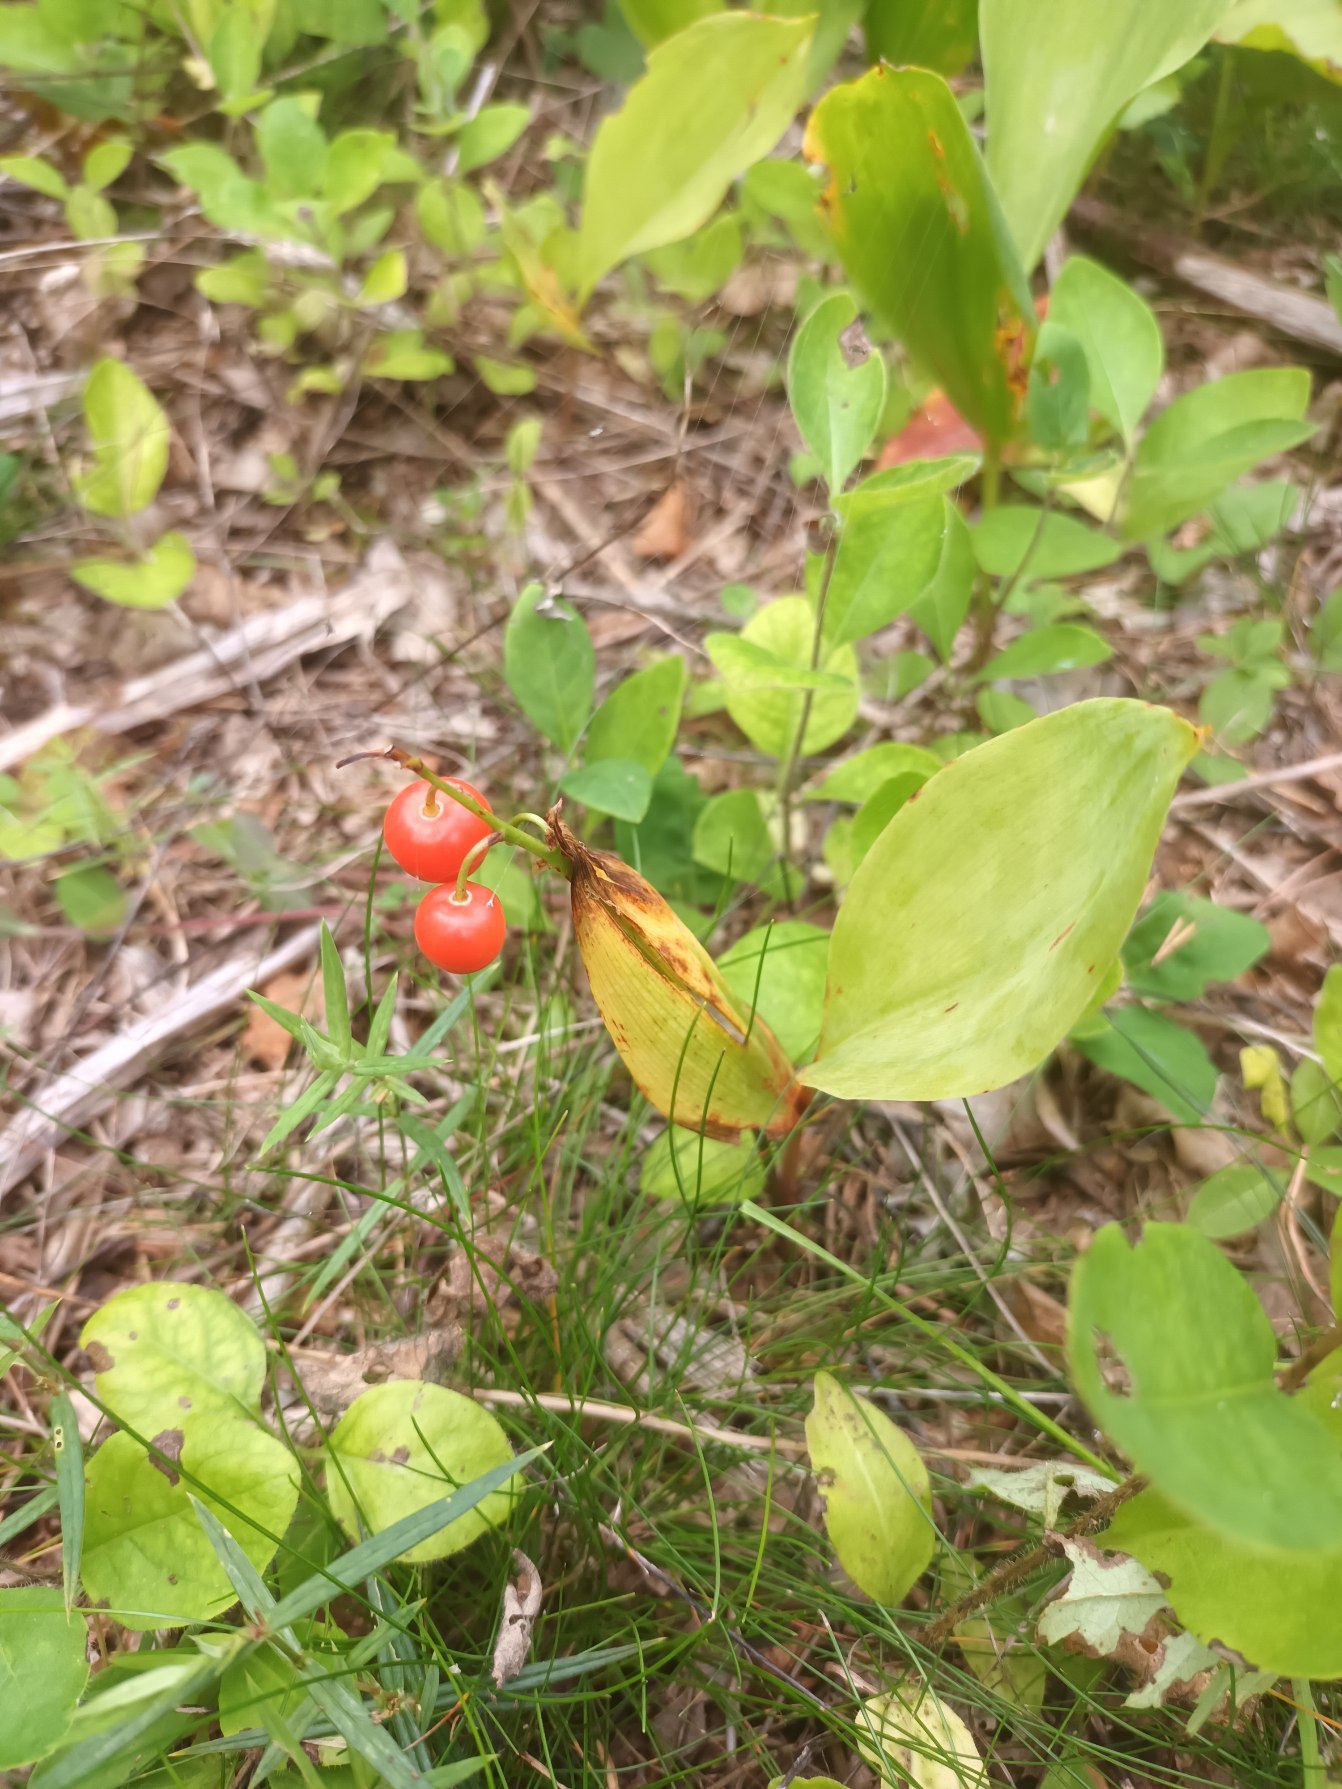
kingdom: Plantae
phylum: Tracheophyta
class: Liliopsida
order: Asparagales
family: Asparagaceae
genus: Convallaria
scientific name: Convallaria majalis
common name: Liljekonval
